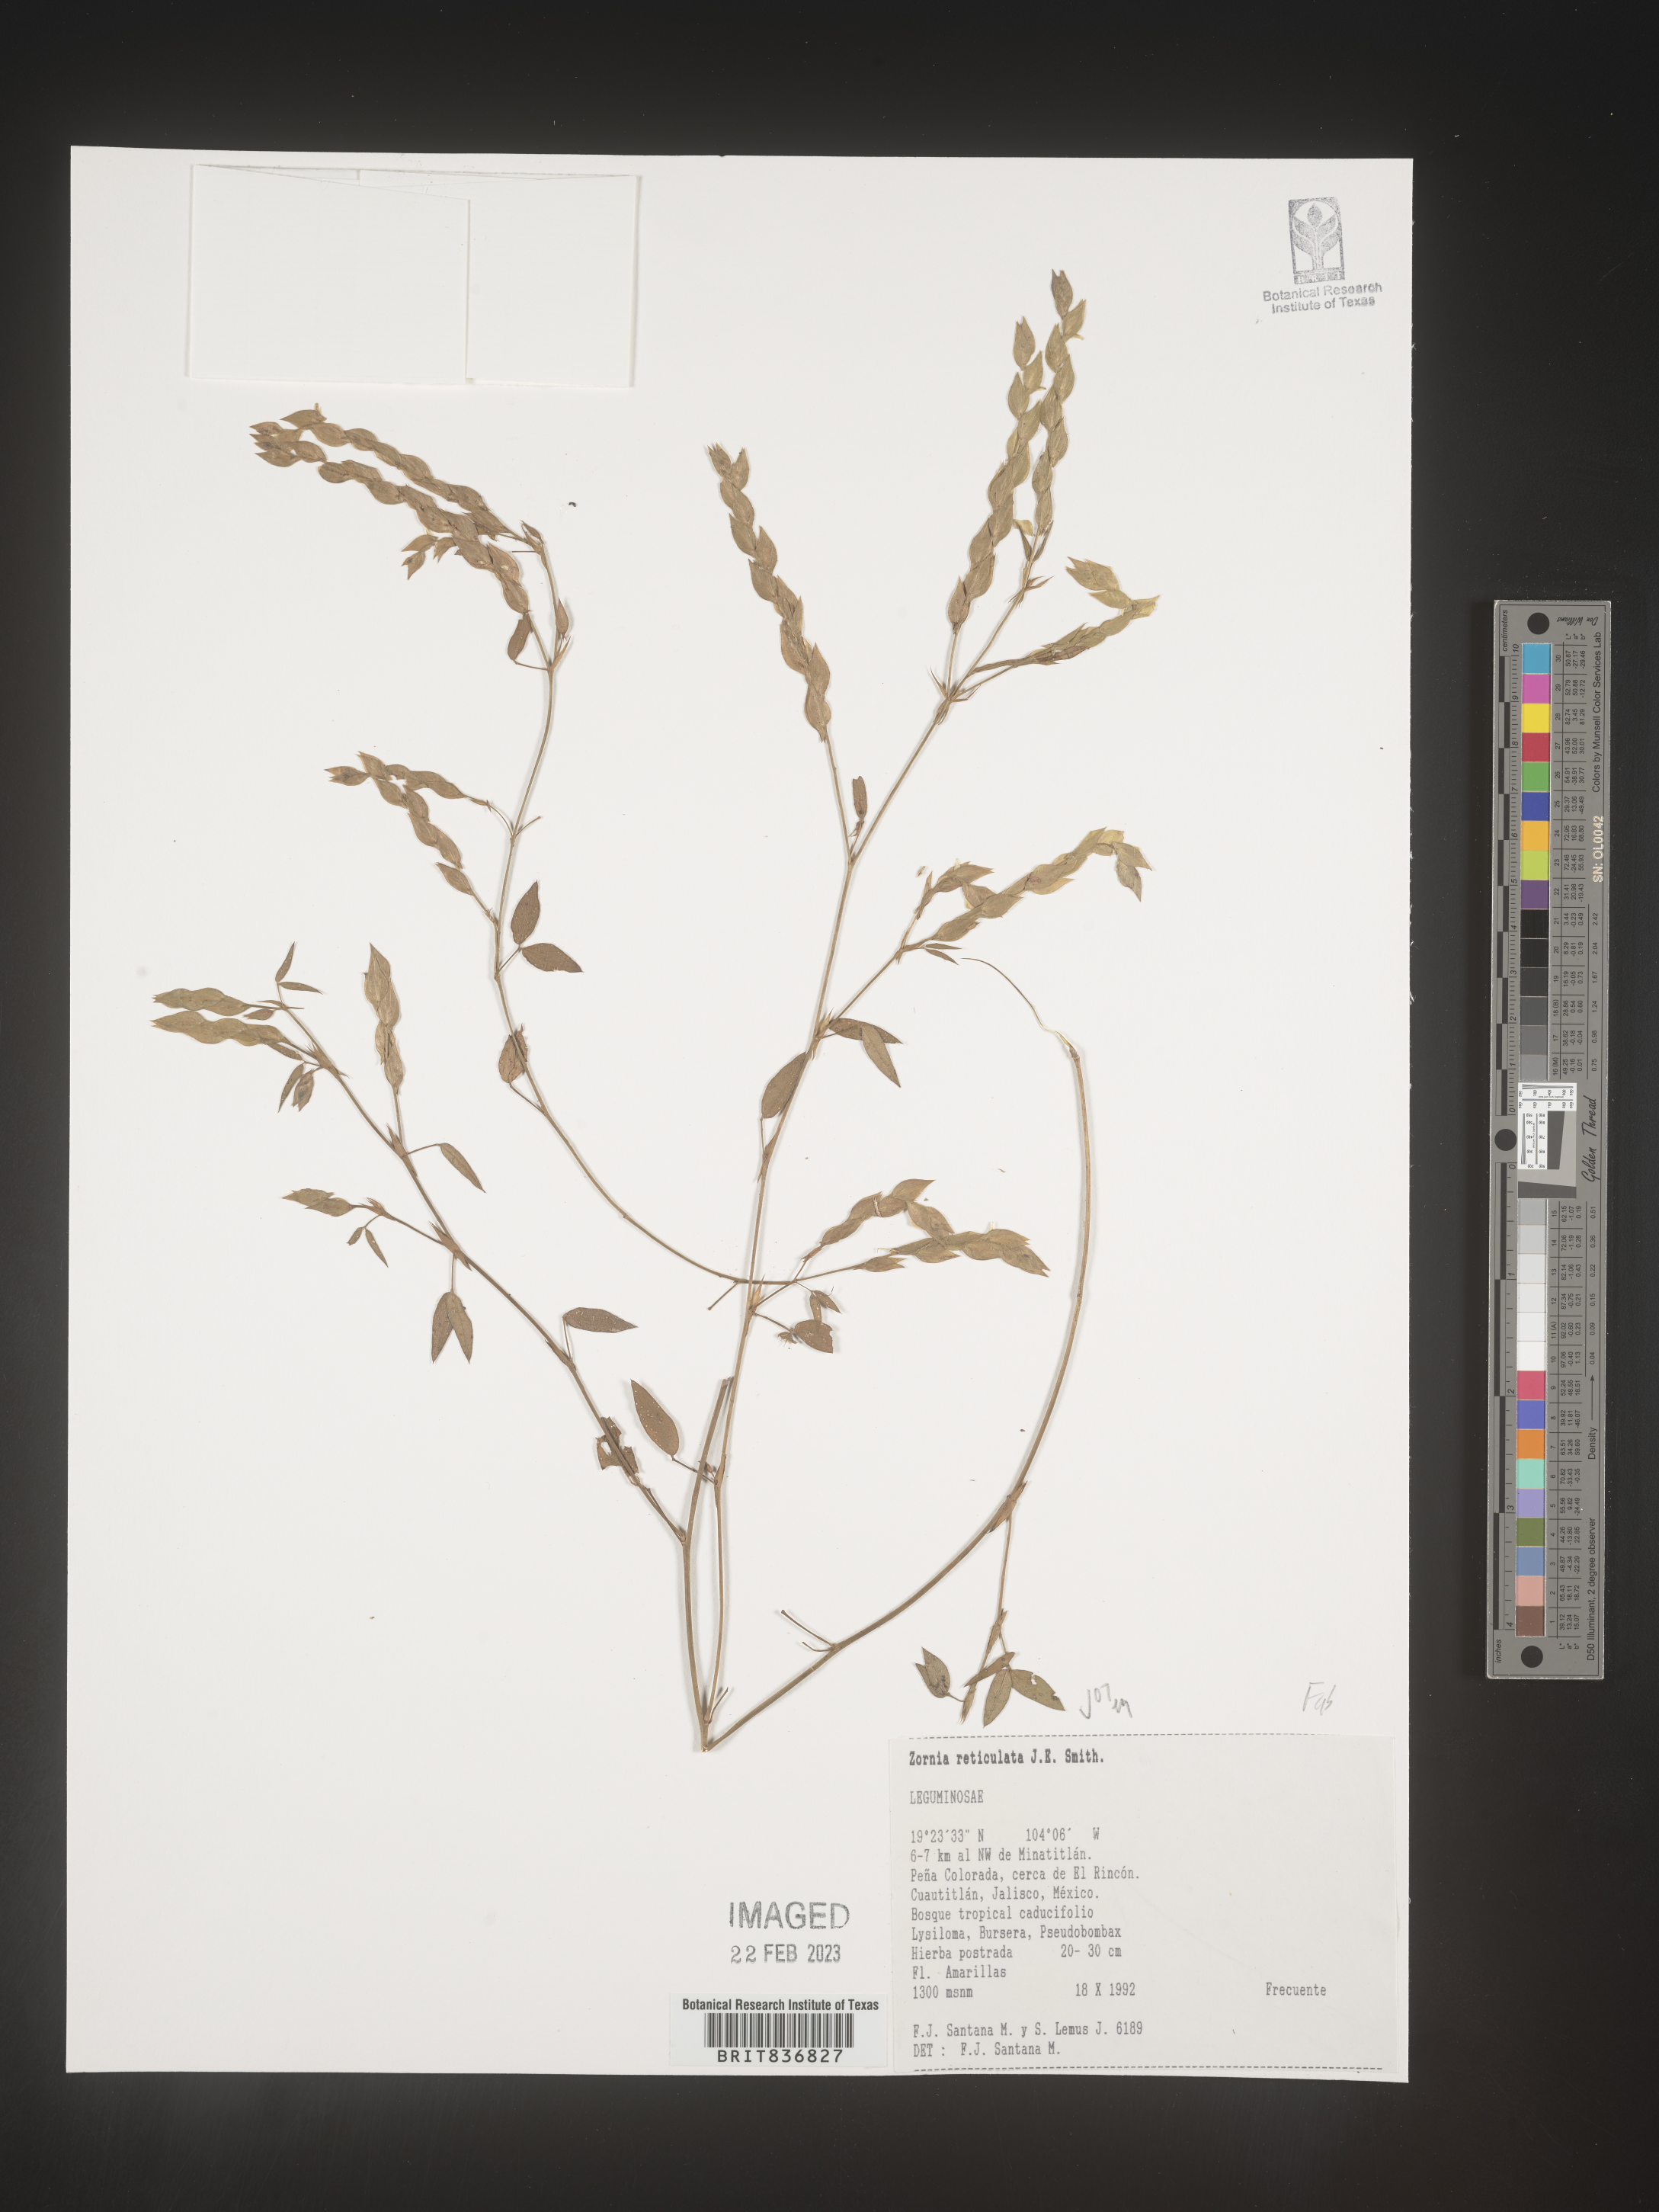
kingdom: Plantae
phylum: Tracheophyta
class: Magnoliopsida
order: Fabales
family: Fabaceae
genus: Zornia
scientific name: Zornia
